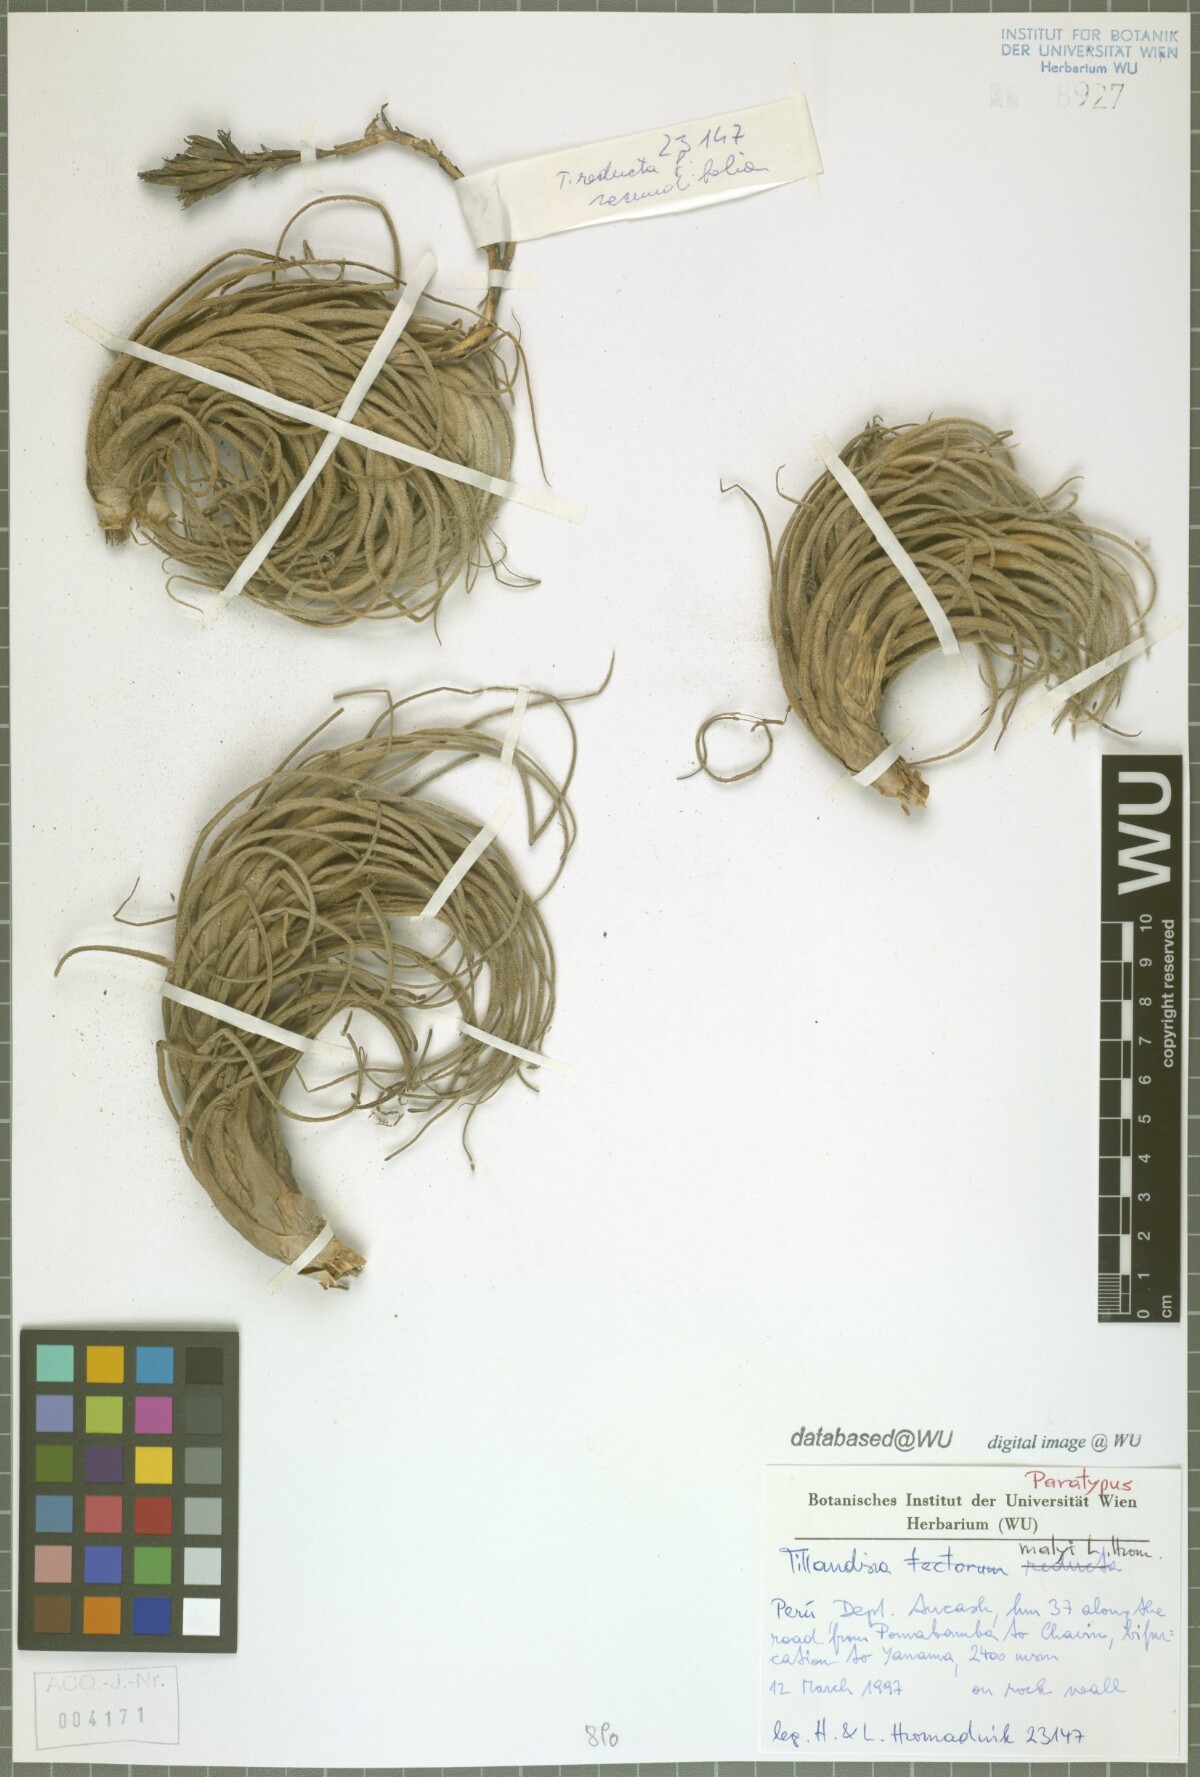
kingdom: Plantae
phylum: Tracheophyta
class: Liliopsida
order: Poales
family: Bromeliaceae
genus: Tillandsia
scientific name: Tillandsia malyi
